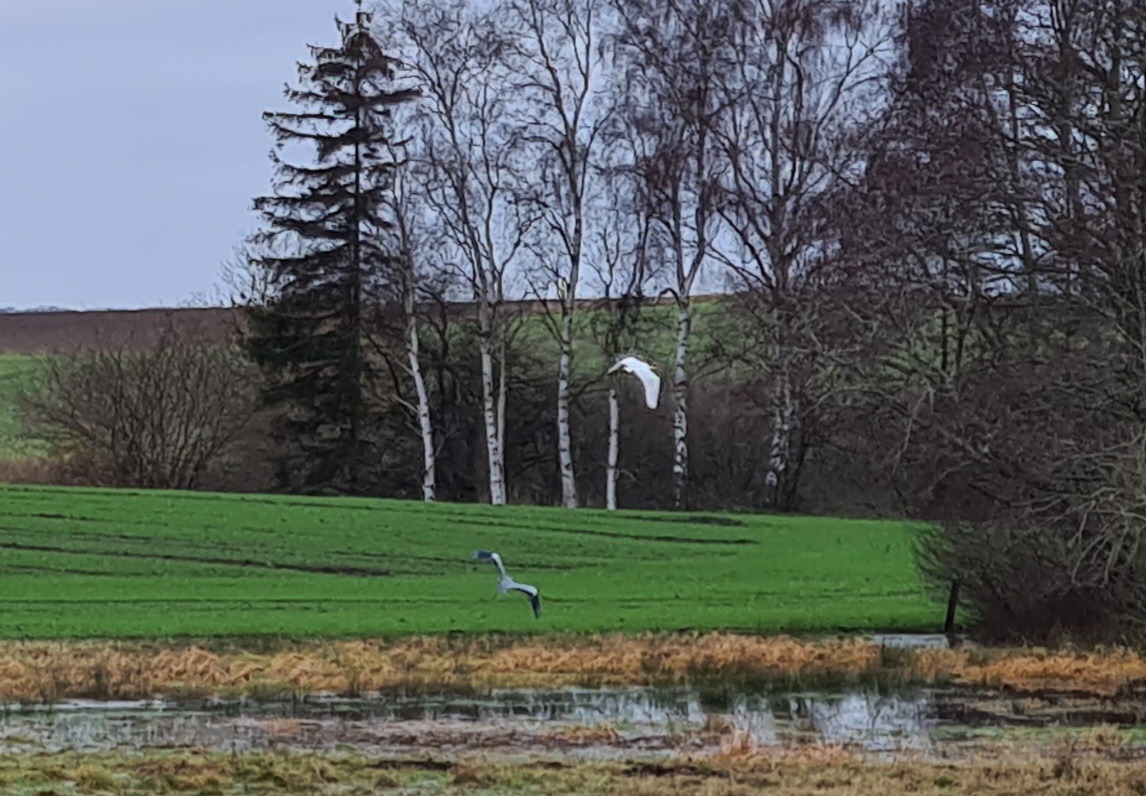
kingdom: Animalia
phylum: Chordata
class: Aves
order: Pelecaniformes
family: Ardeidae
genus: Ardea
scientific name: Ardea alba
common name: Sølvhejre
